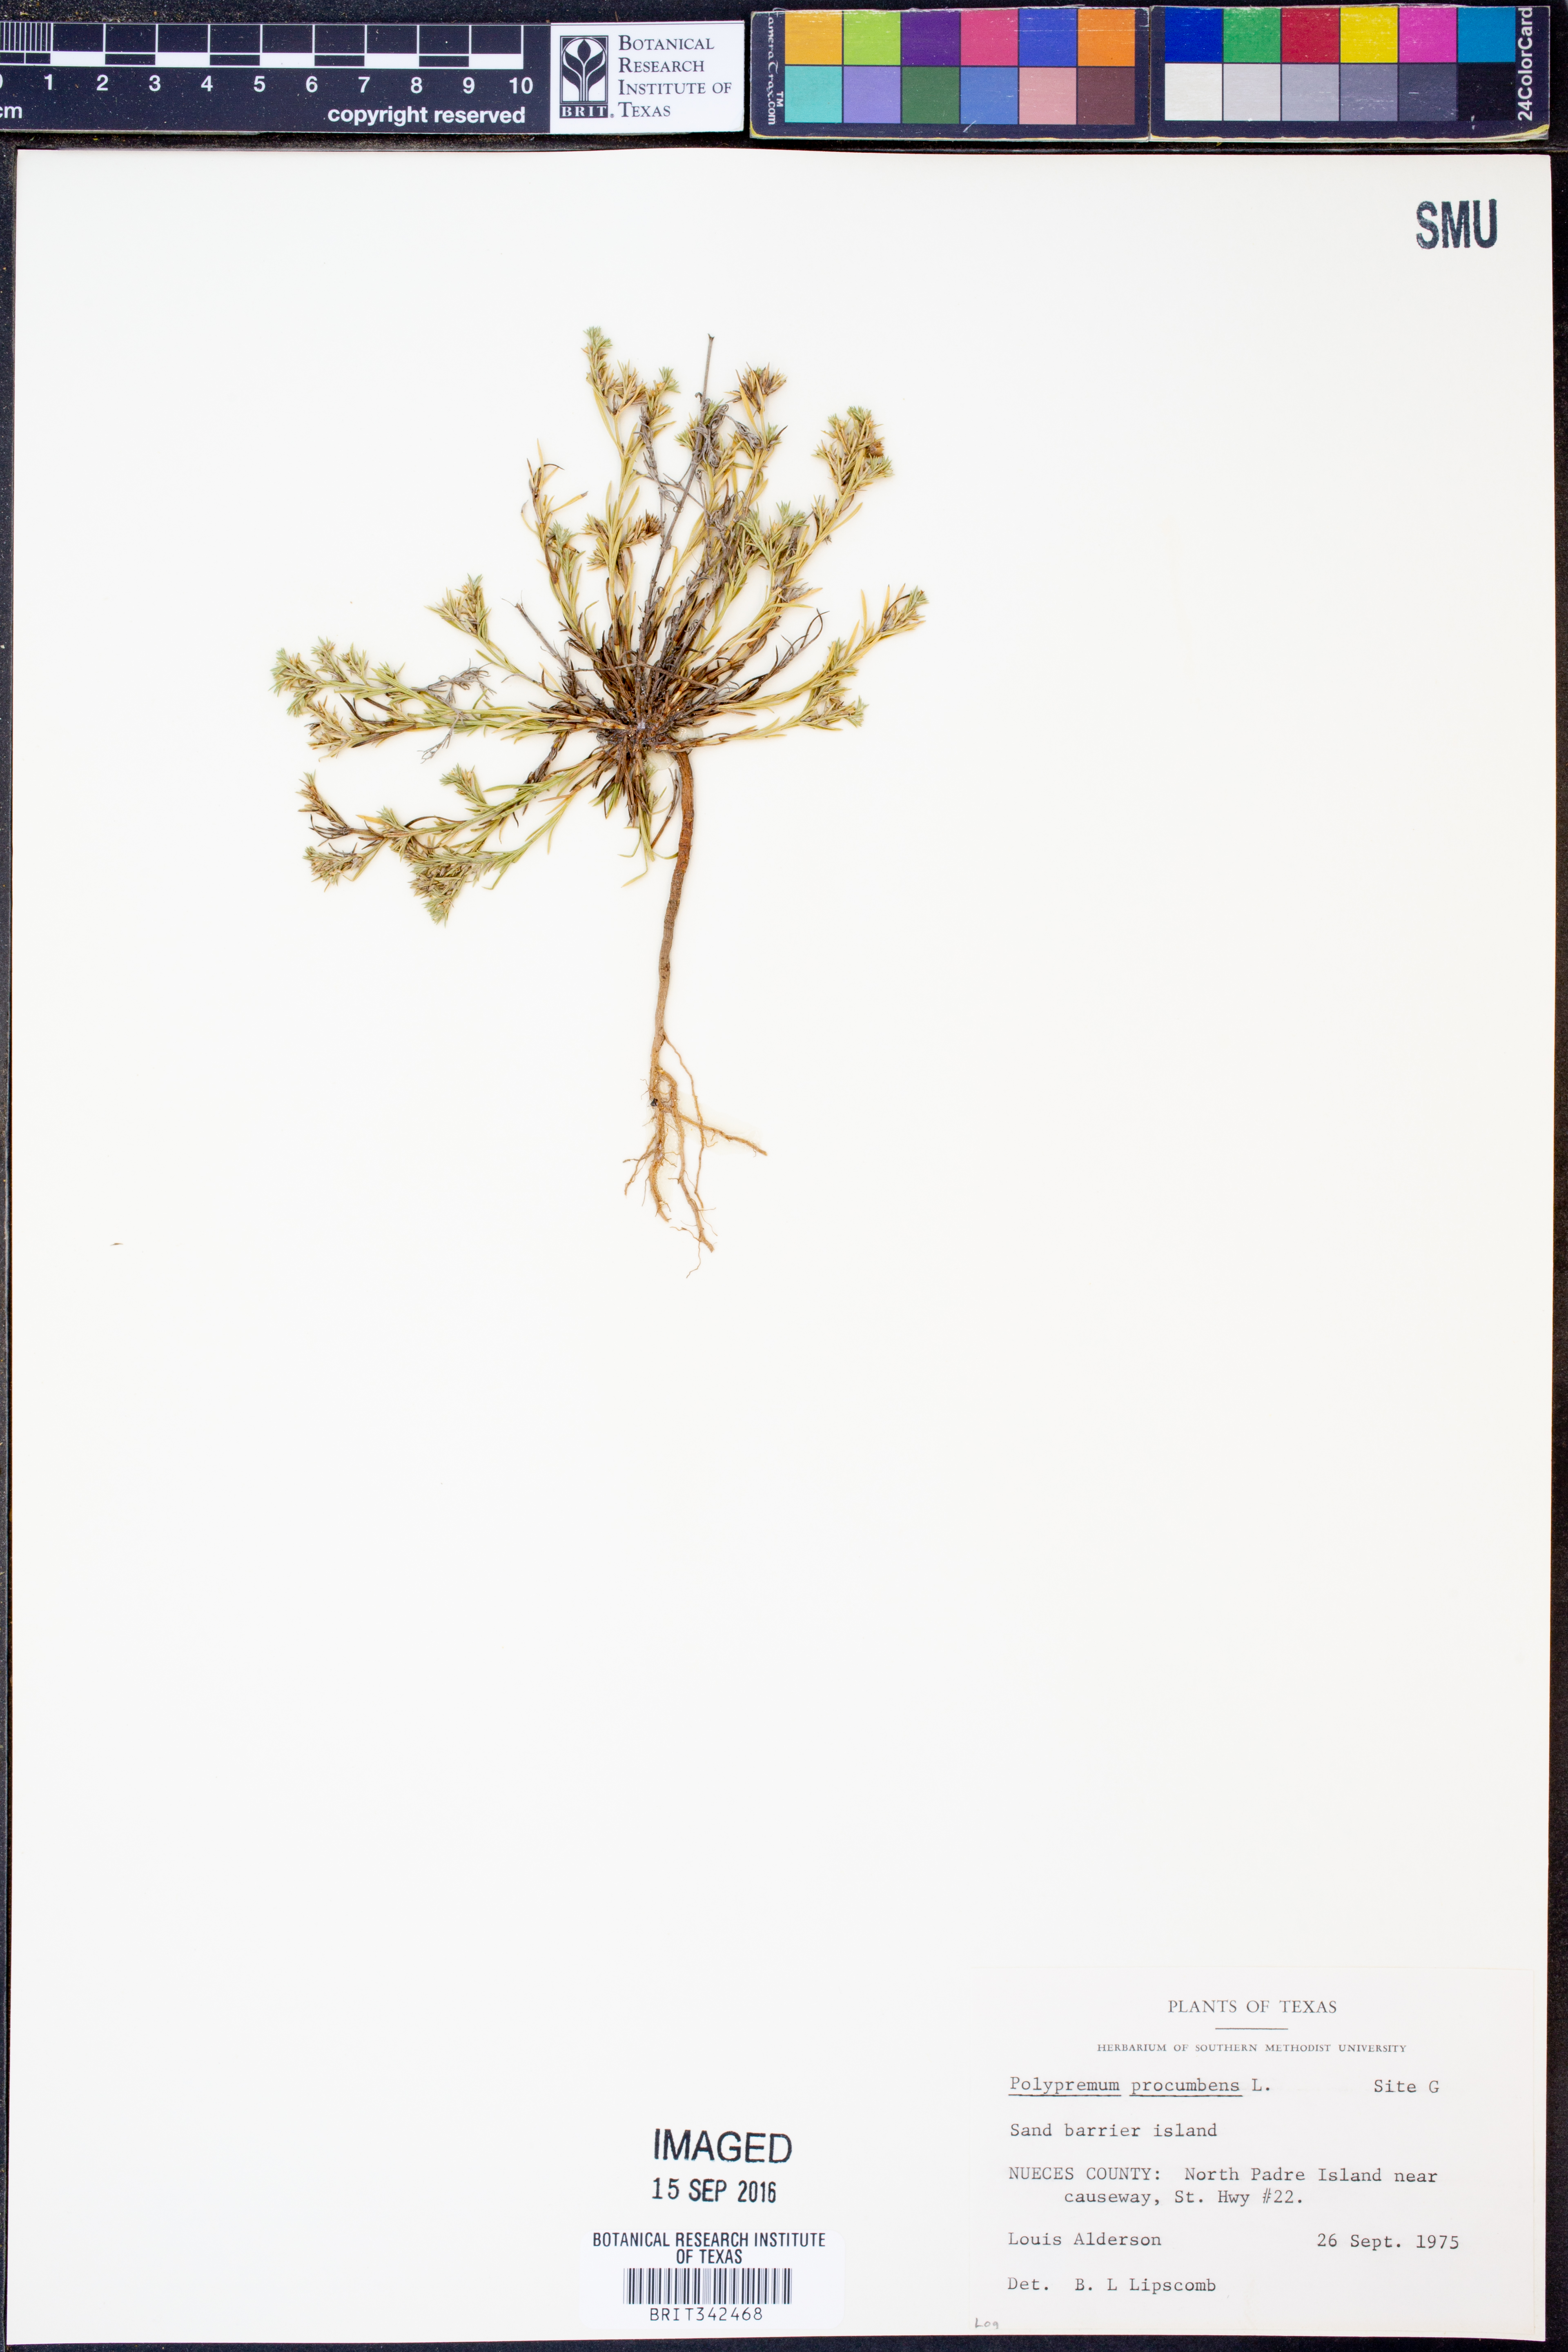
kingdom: Plantae
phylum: Tracheophyta
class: Magnoliopsida
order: Lamiales
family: Tetrachondraceae
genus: Polypremum
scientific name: Polypremum procumbens
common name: Juniper-leaf
